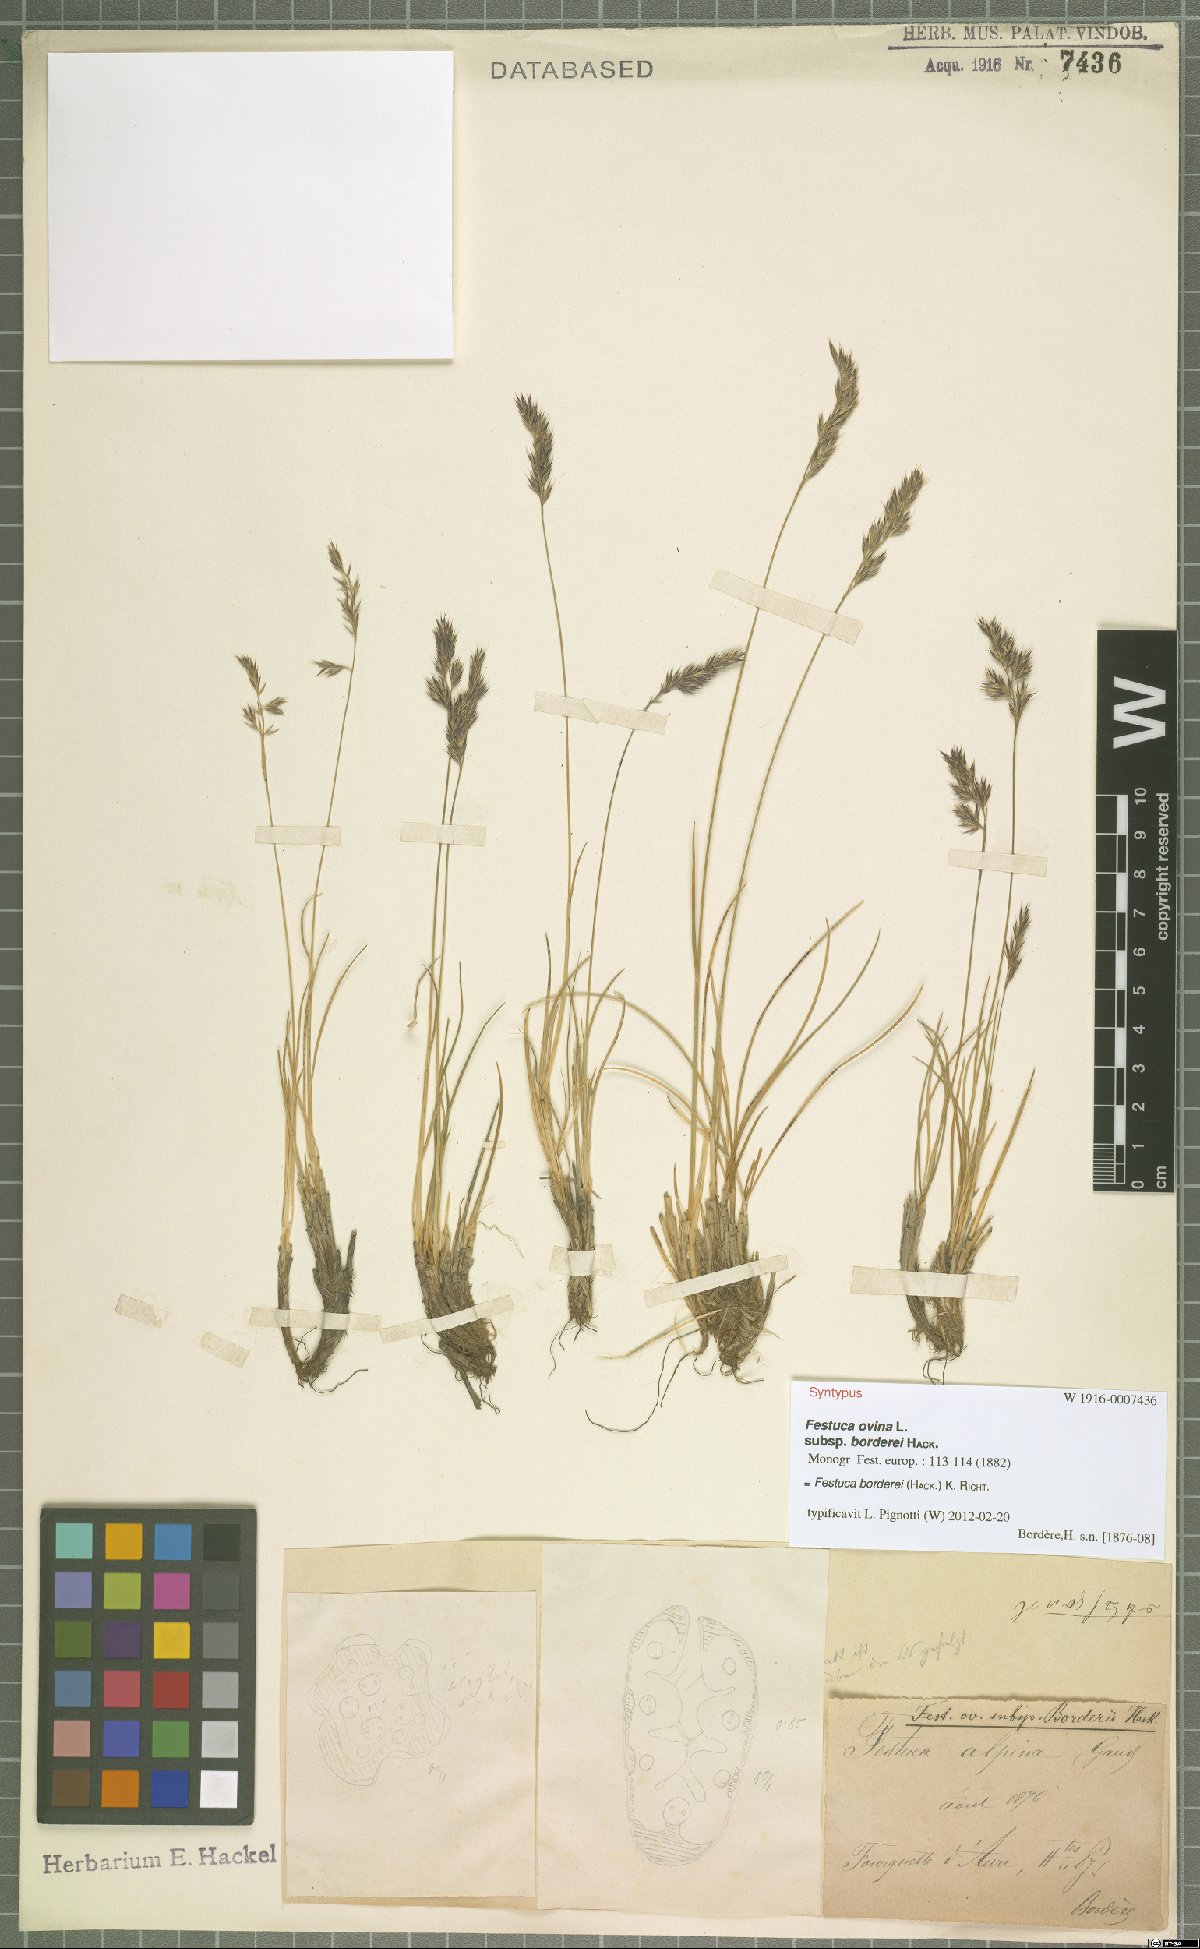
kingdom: Plantae
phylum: Tracheophyta
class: Liliopsida
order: Poales
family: Poaceae
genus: Festuca
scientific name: Festuca borderii
